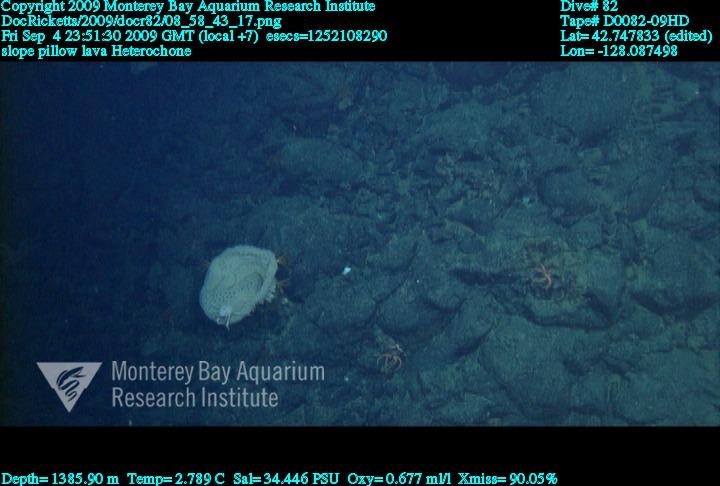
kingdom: Animalia
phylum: Porifera
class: Hexactinellida
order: Sceptrulophora
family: Aphrocallistidae
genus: Heterochone
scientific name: Heterochone
